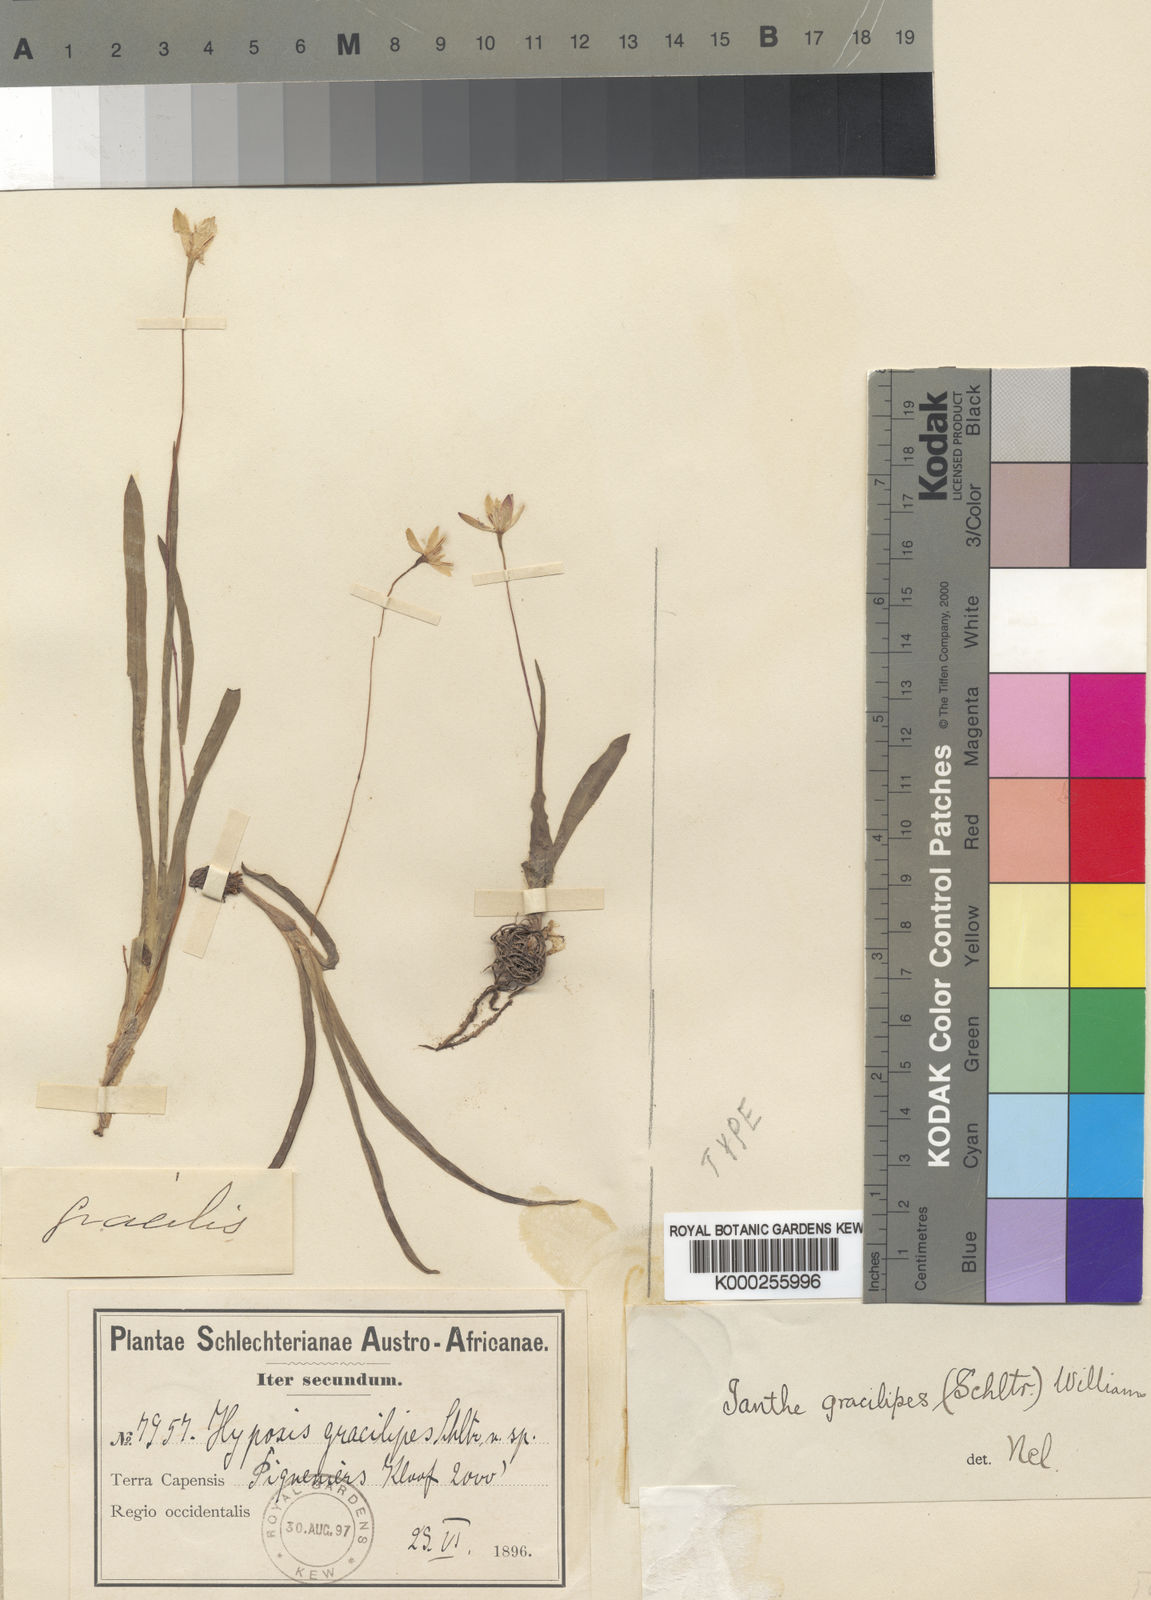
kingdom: Plantae
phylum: Tracheophyta
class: Liliopsida
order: Asparagales
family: Hypoxidaceae
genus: Pauridia
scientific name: Pauridia gracilipes
